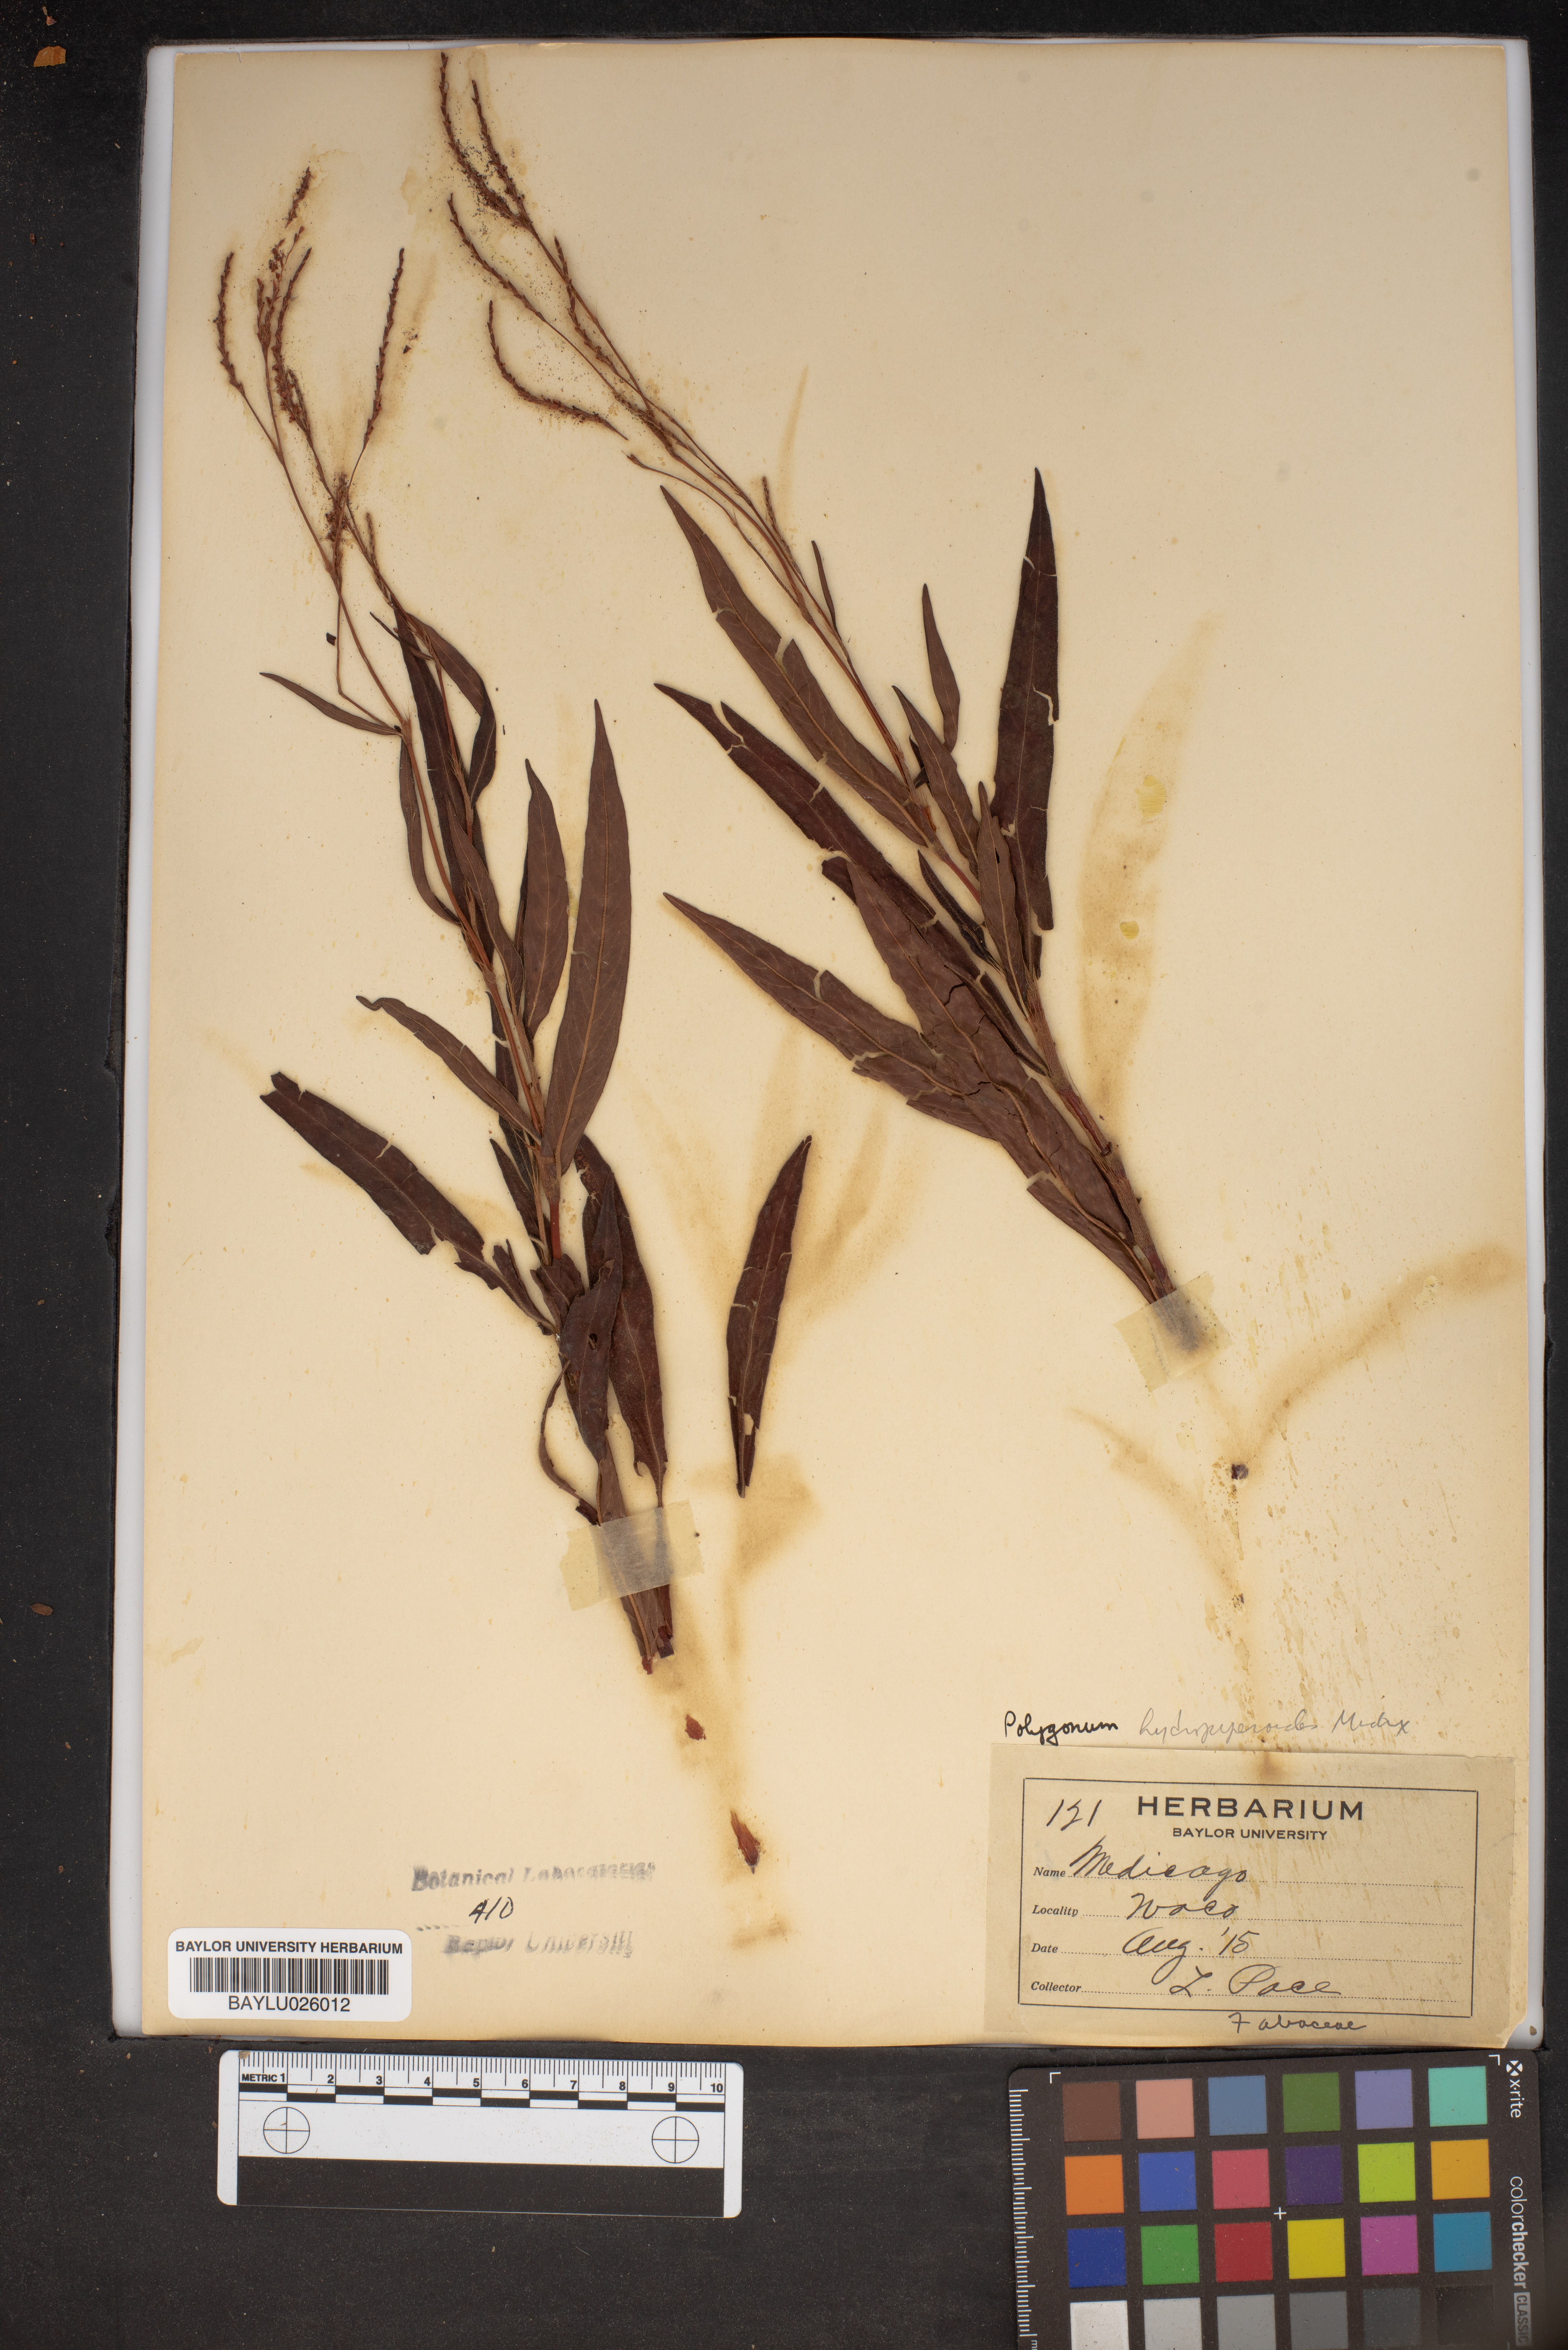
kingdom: Plantae
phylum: Tracheophyta
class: Magnoliopsida
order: Caryophyllales
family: Polygonaceae
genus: Persicaria
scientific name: Persicaria hydropiperoides
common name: Swamp smartweed
